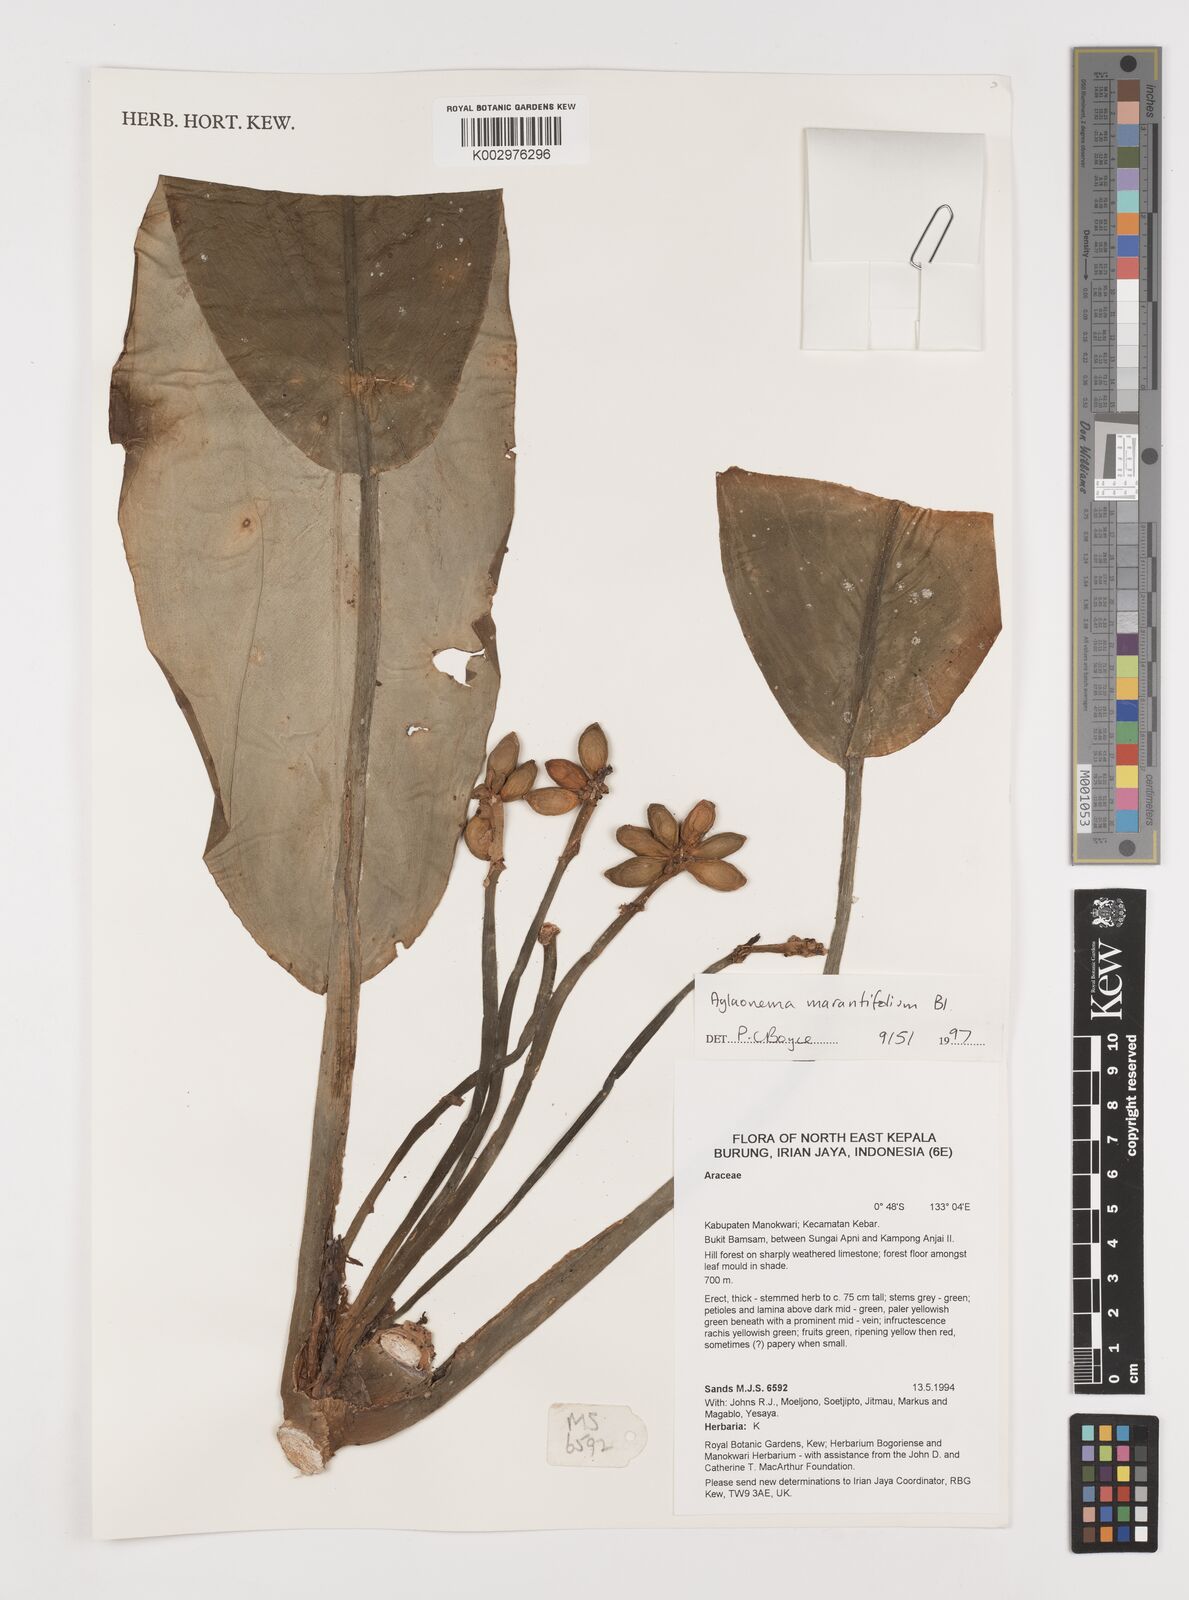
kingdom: Plantae
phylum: Tracheophyta
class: Liliopsida
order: Alismatales
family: Araceae
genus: Aglaonema
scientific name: Aglaonema marantifolium
